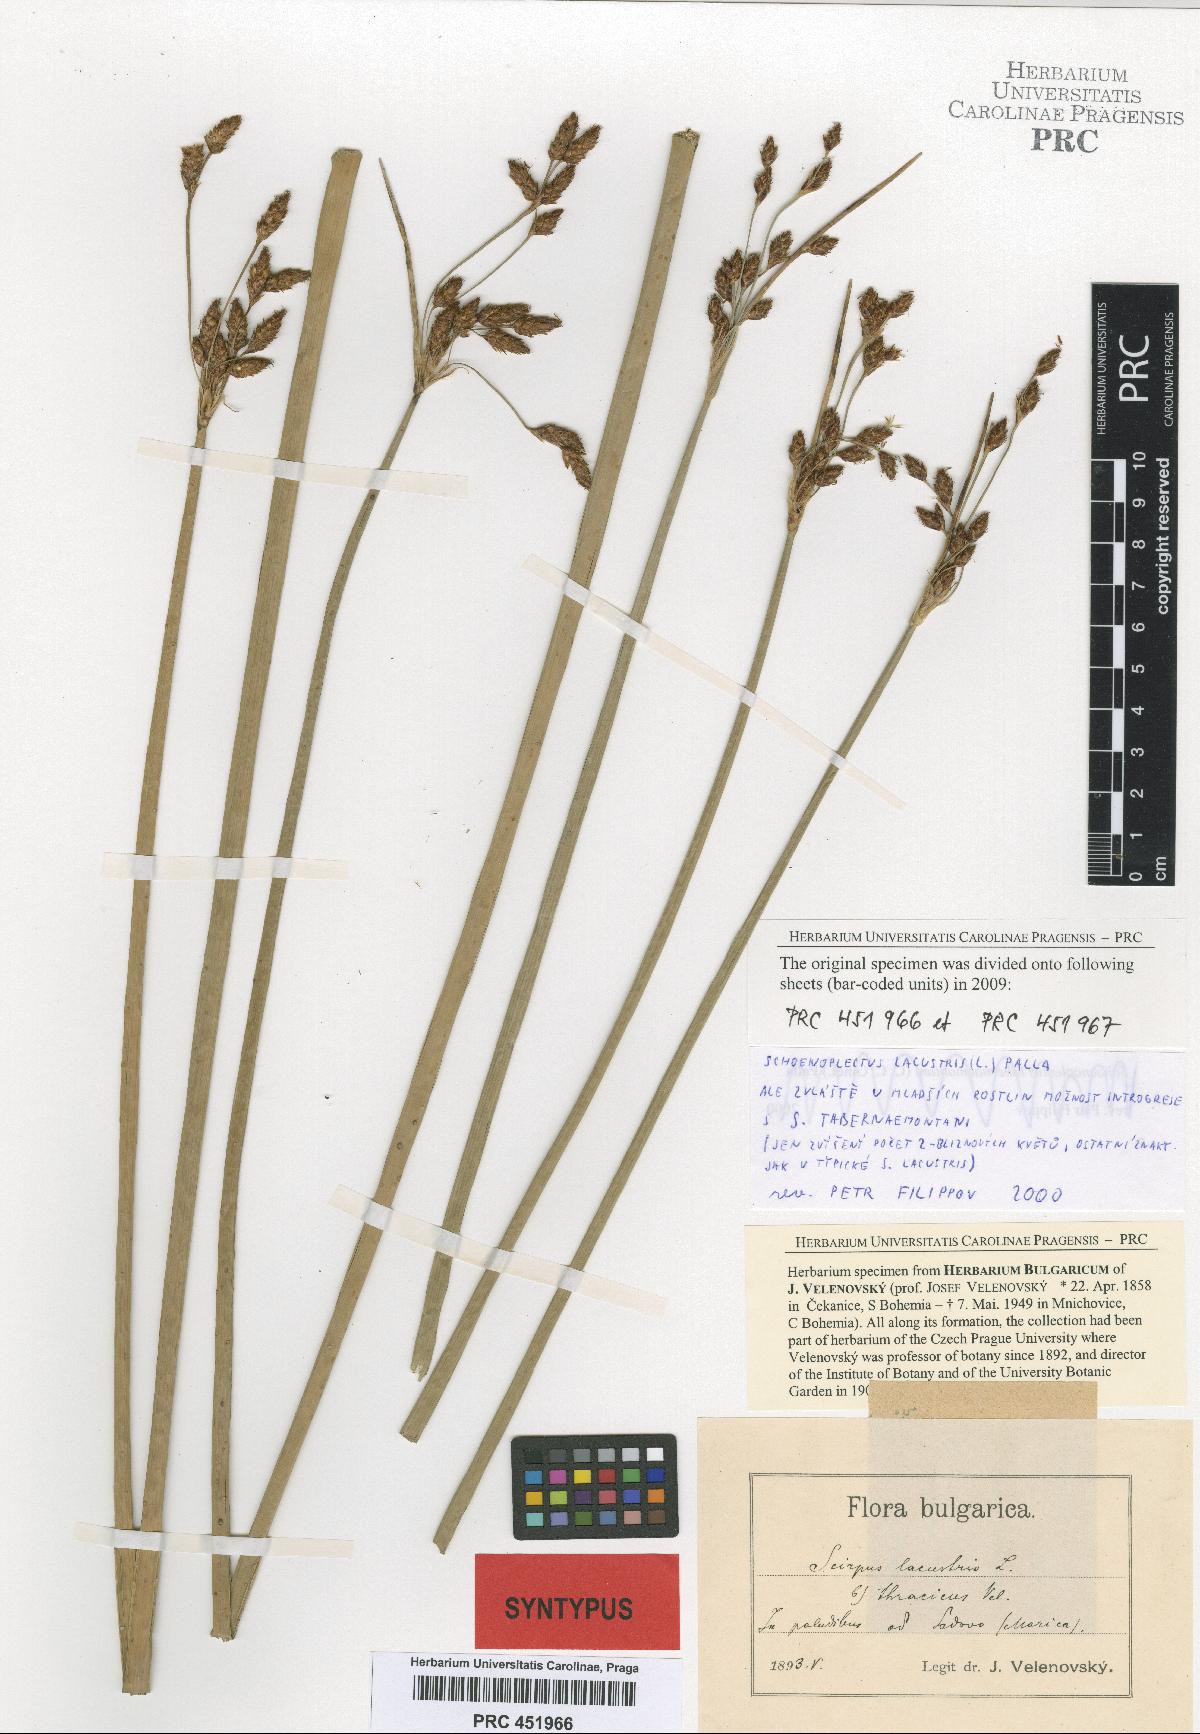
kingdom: Plantae
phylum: Tracheophyta
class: Liliopsida
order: Poales
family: Cyperaceae
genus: Schoenoplectus
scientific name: Schoenoplectus lacustris
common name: Common club-rush
